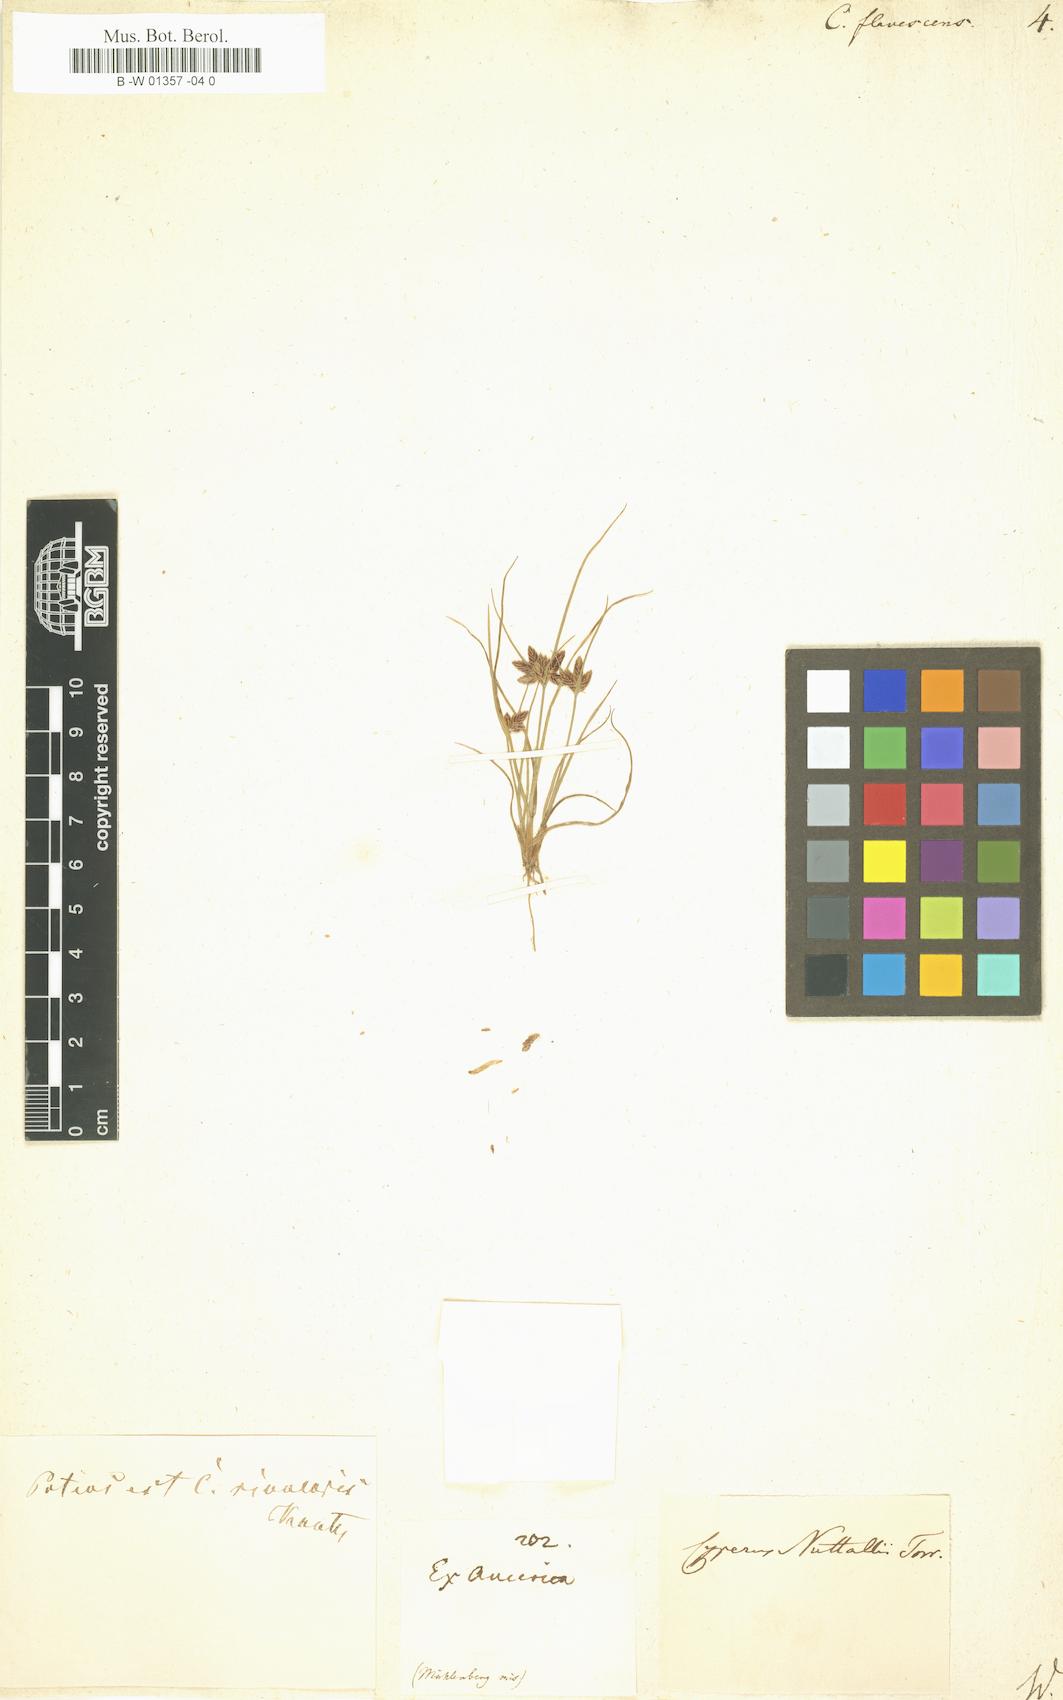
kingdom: Plantae
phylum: Tracheophyta
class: Liliopsida
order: Poales
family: Cyperaceae
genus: Cyperus
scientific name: Cyperus flavescens
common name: Yellow galingale
